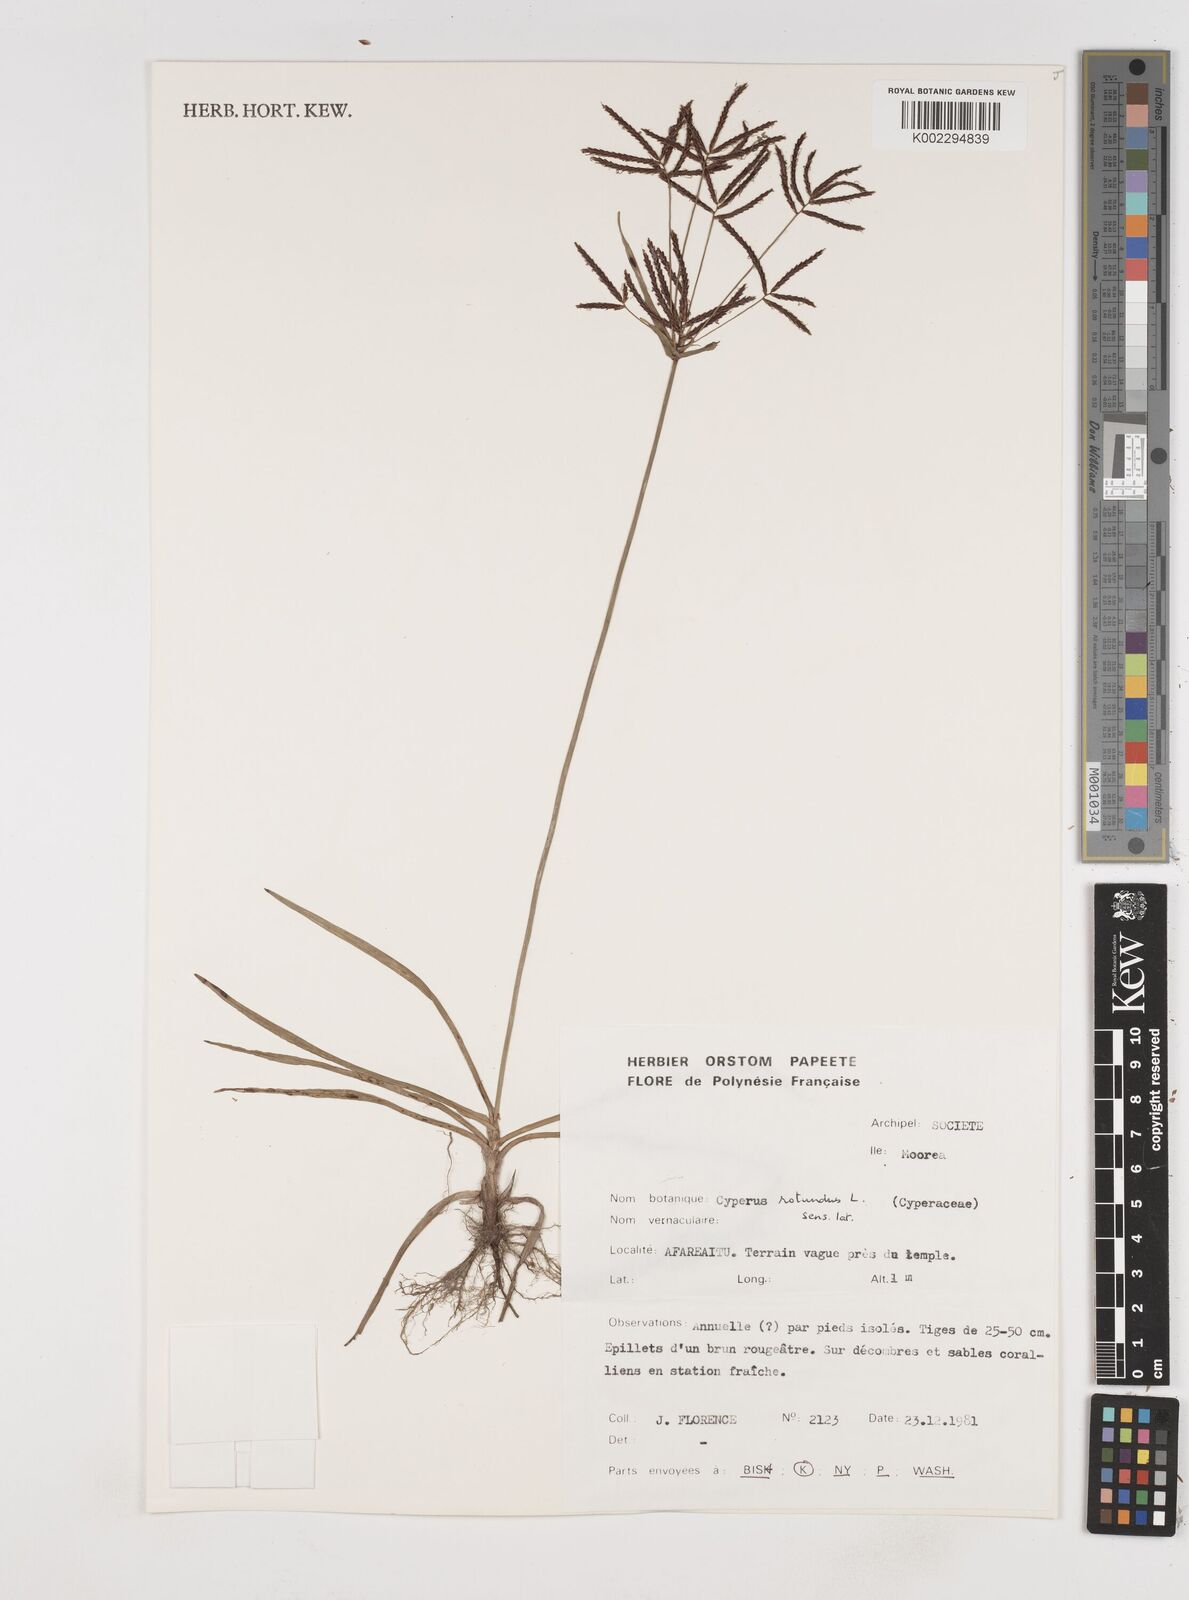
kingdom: Plantae
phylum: Tracheophyta
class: Liliopsida
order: Poales
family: Cyperaceae
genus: Cyperus
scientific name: Cyperus rotundus
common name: Nutgrass
